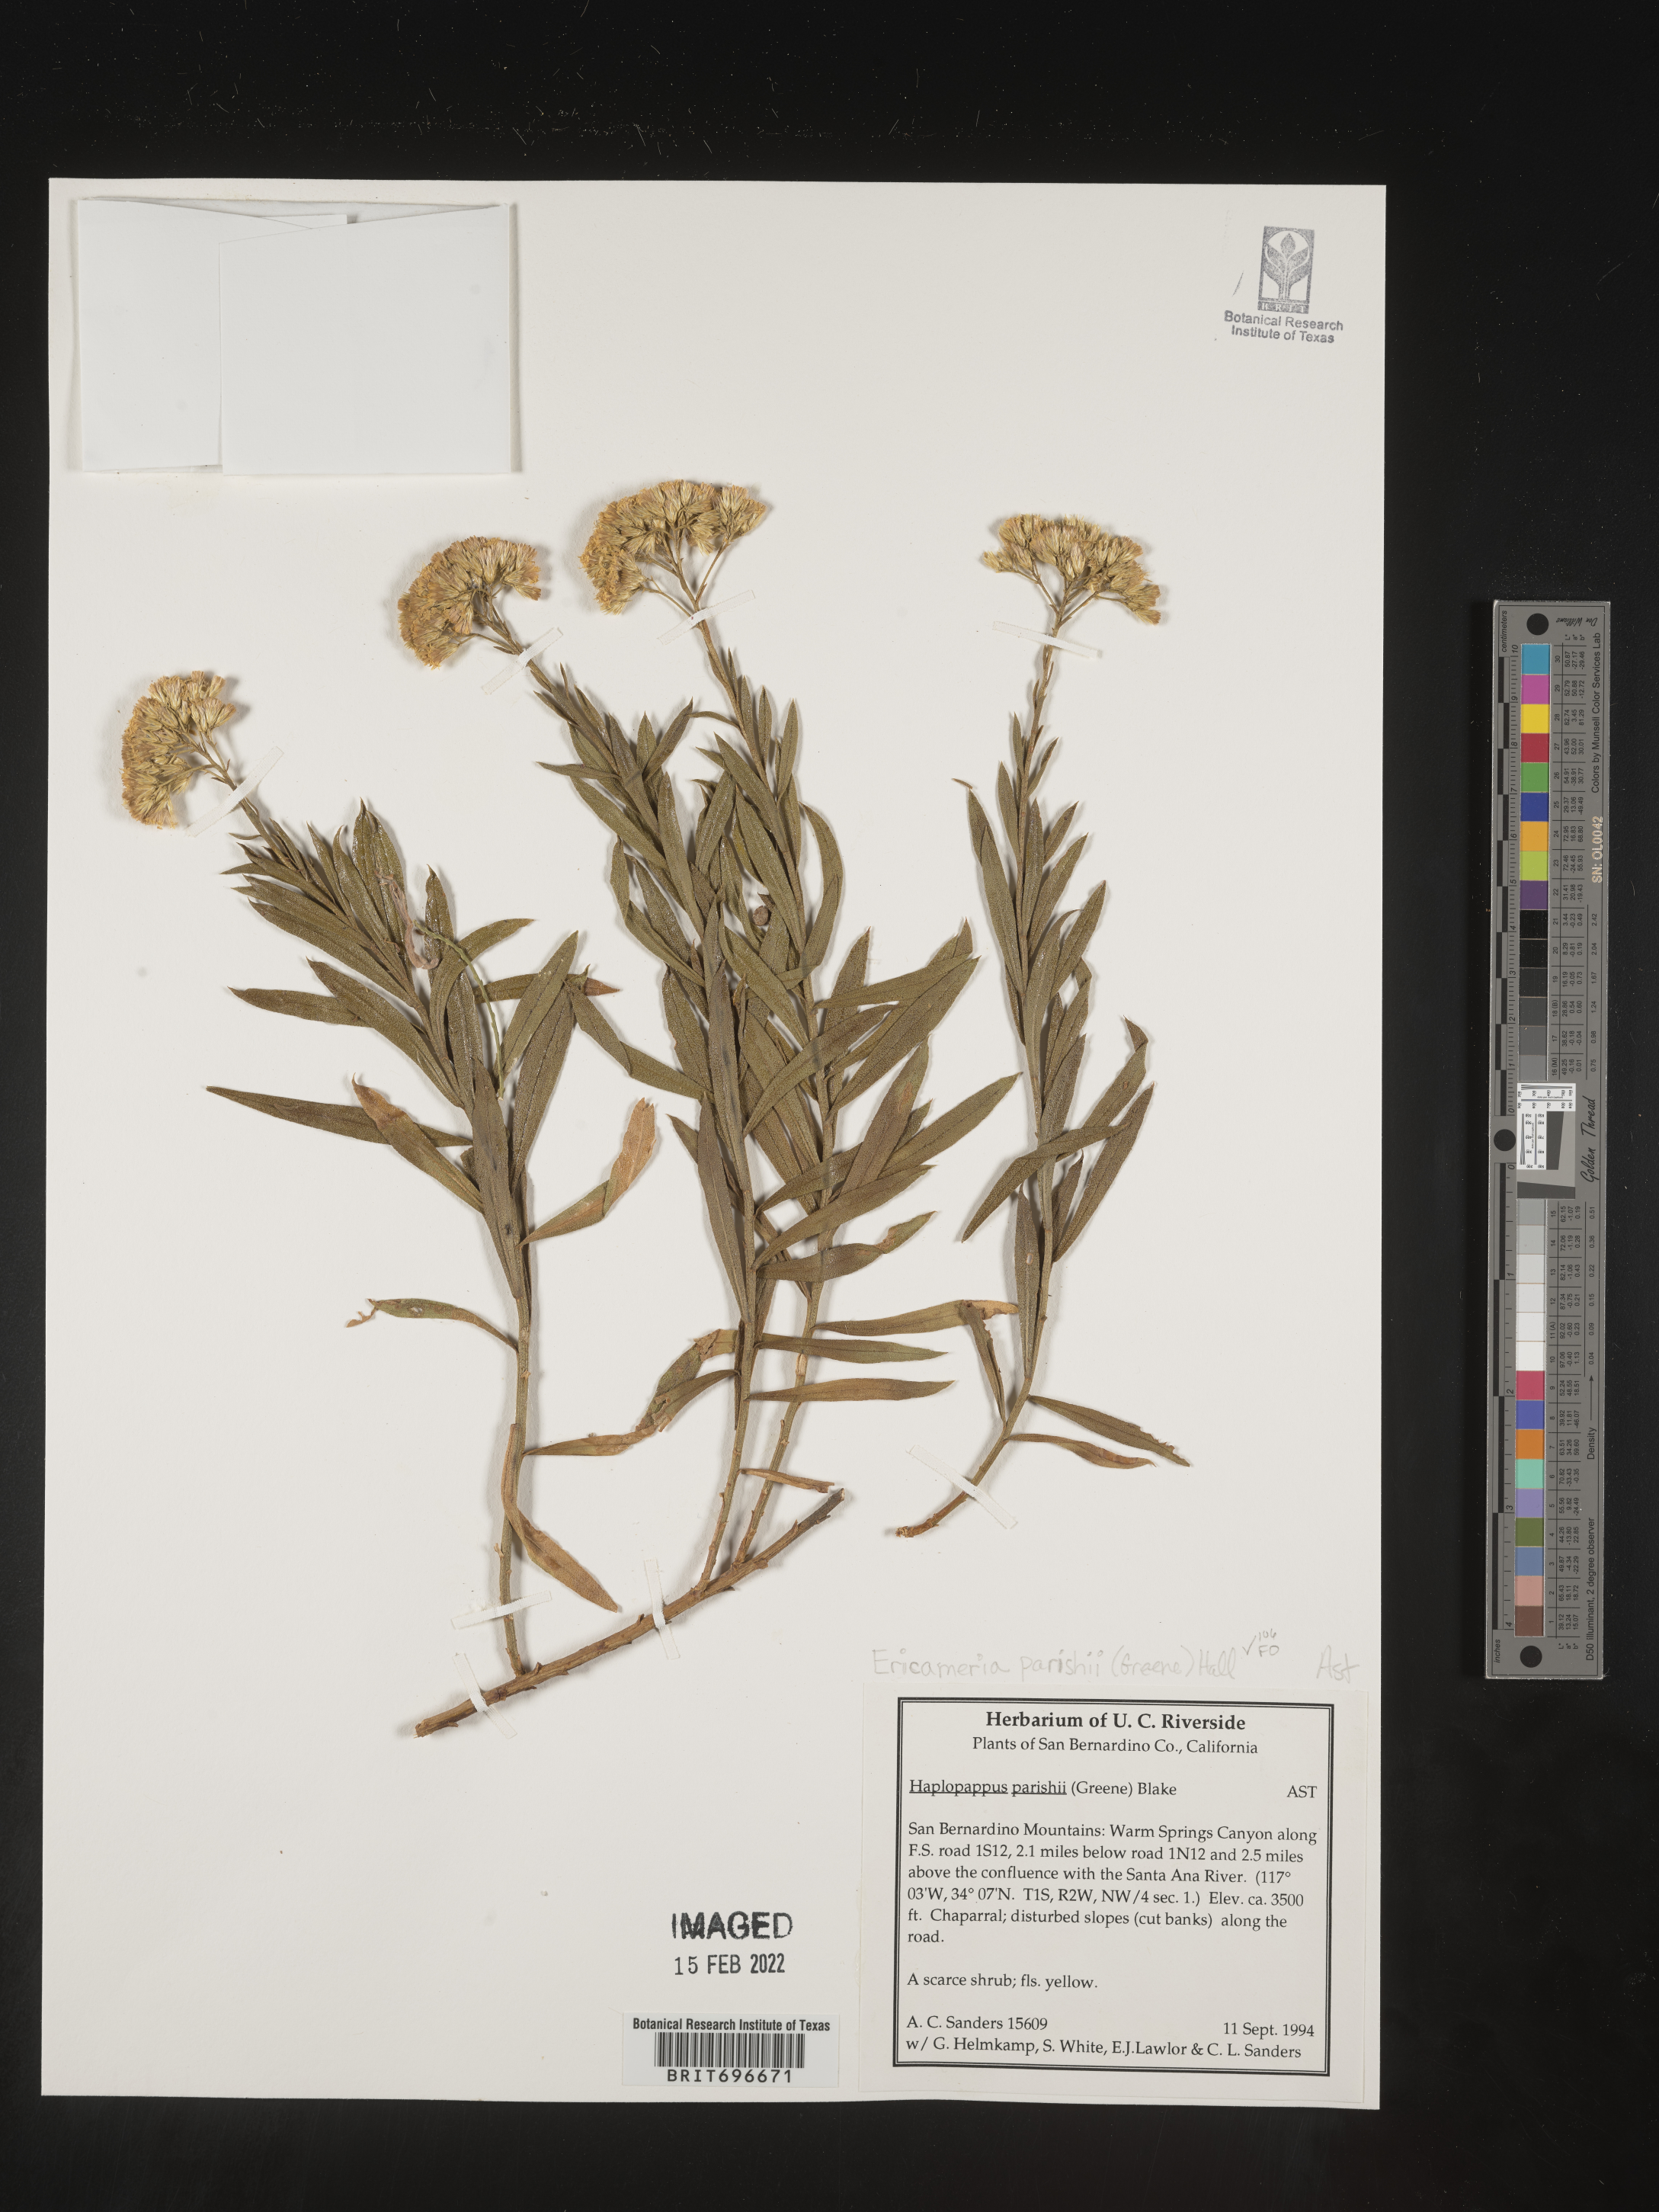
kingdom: Plantae
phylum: Tracheophyta
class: Magnoliopsida
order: Asterales
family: Asteraceae
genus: Ericameria
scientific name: Ericameria parishii
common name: Parish's goldenbush
